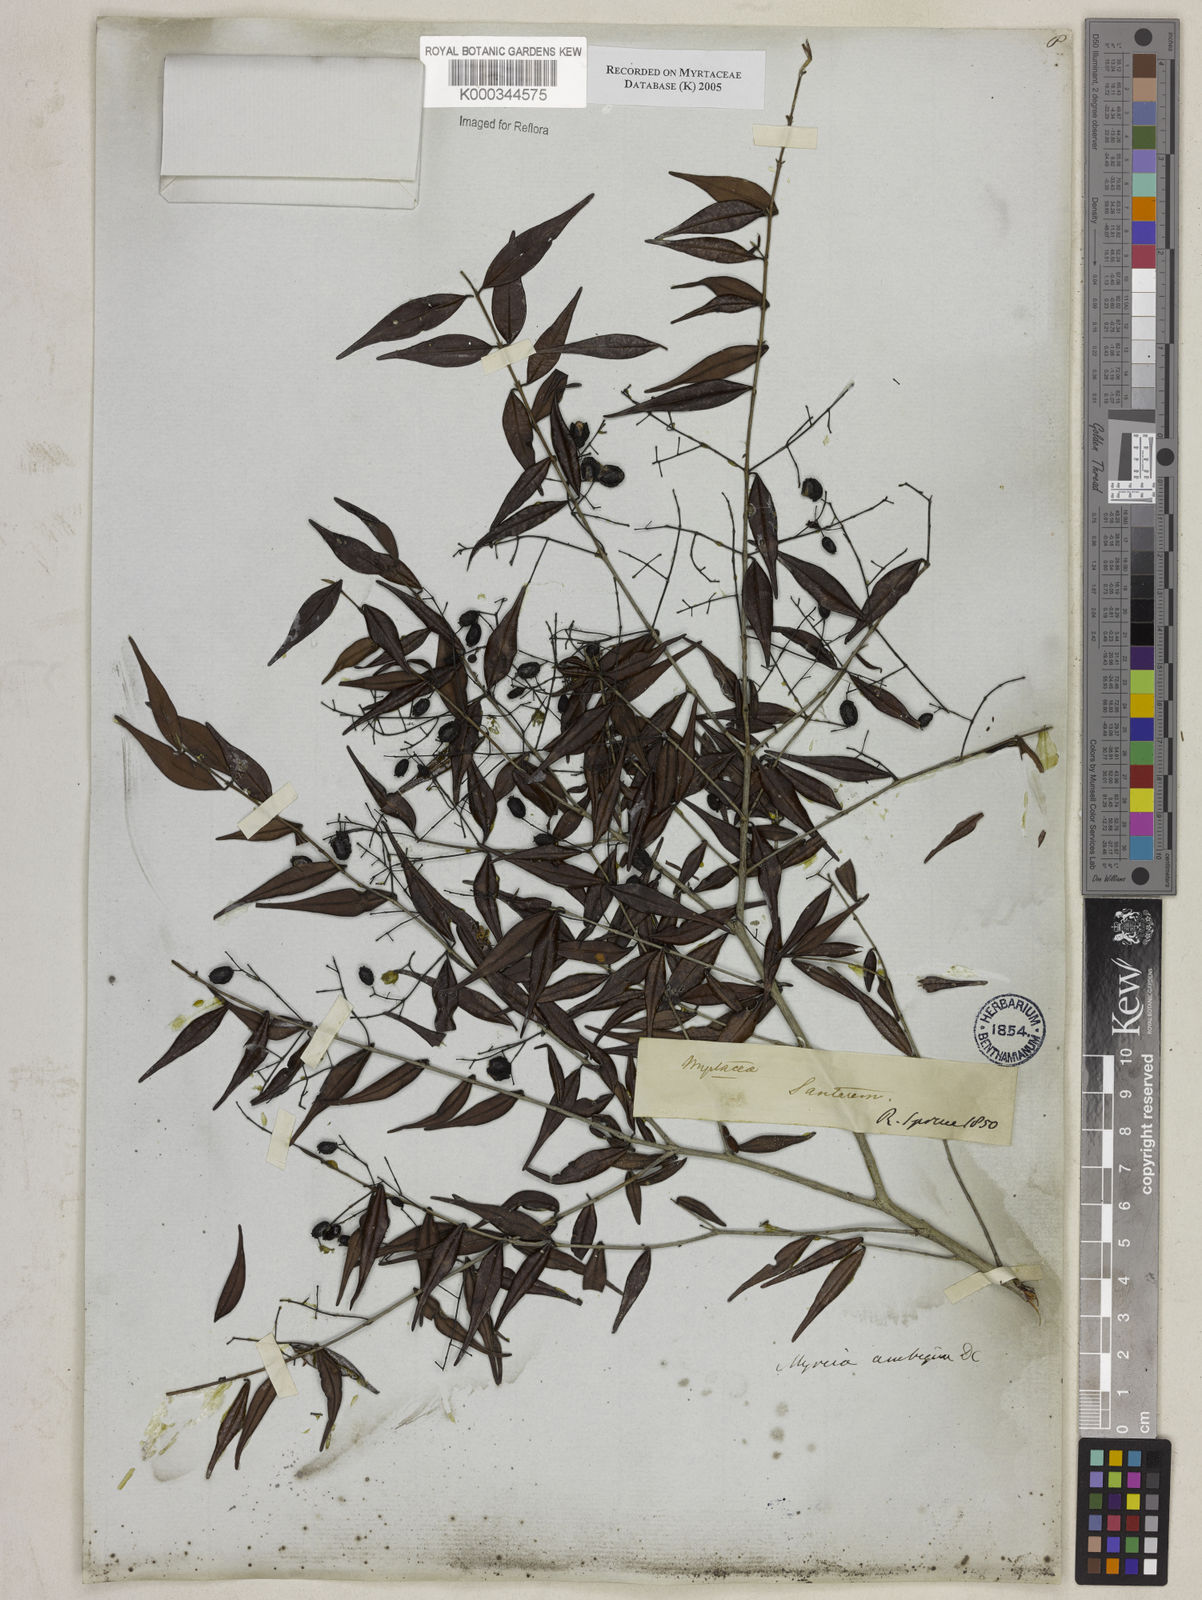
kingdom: Plantae
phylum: Tracheophyta
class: Magnoliopsida
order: Myrtales
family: Myrtaceae
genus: Myrcia
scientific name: Myrcia sylvatica
